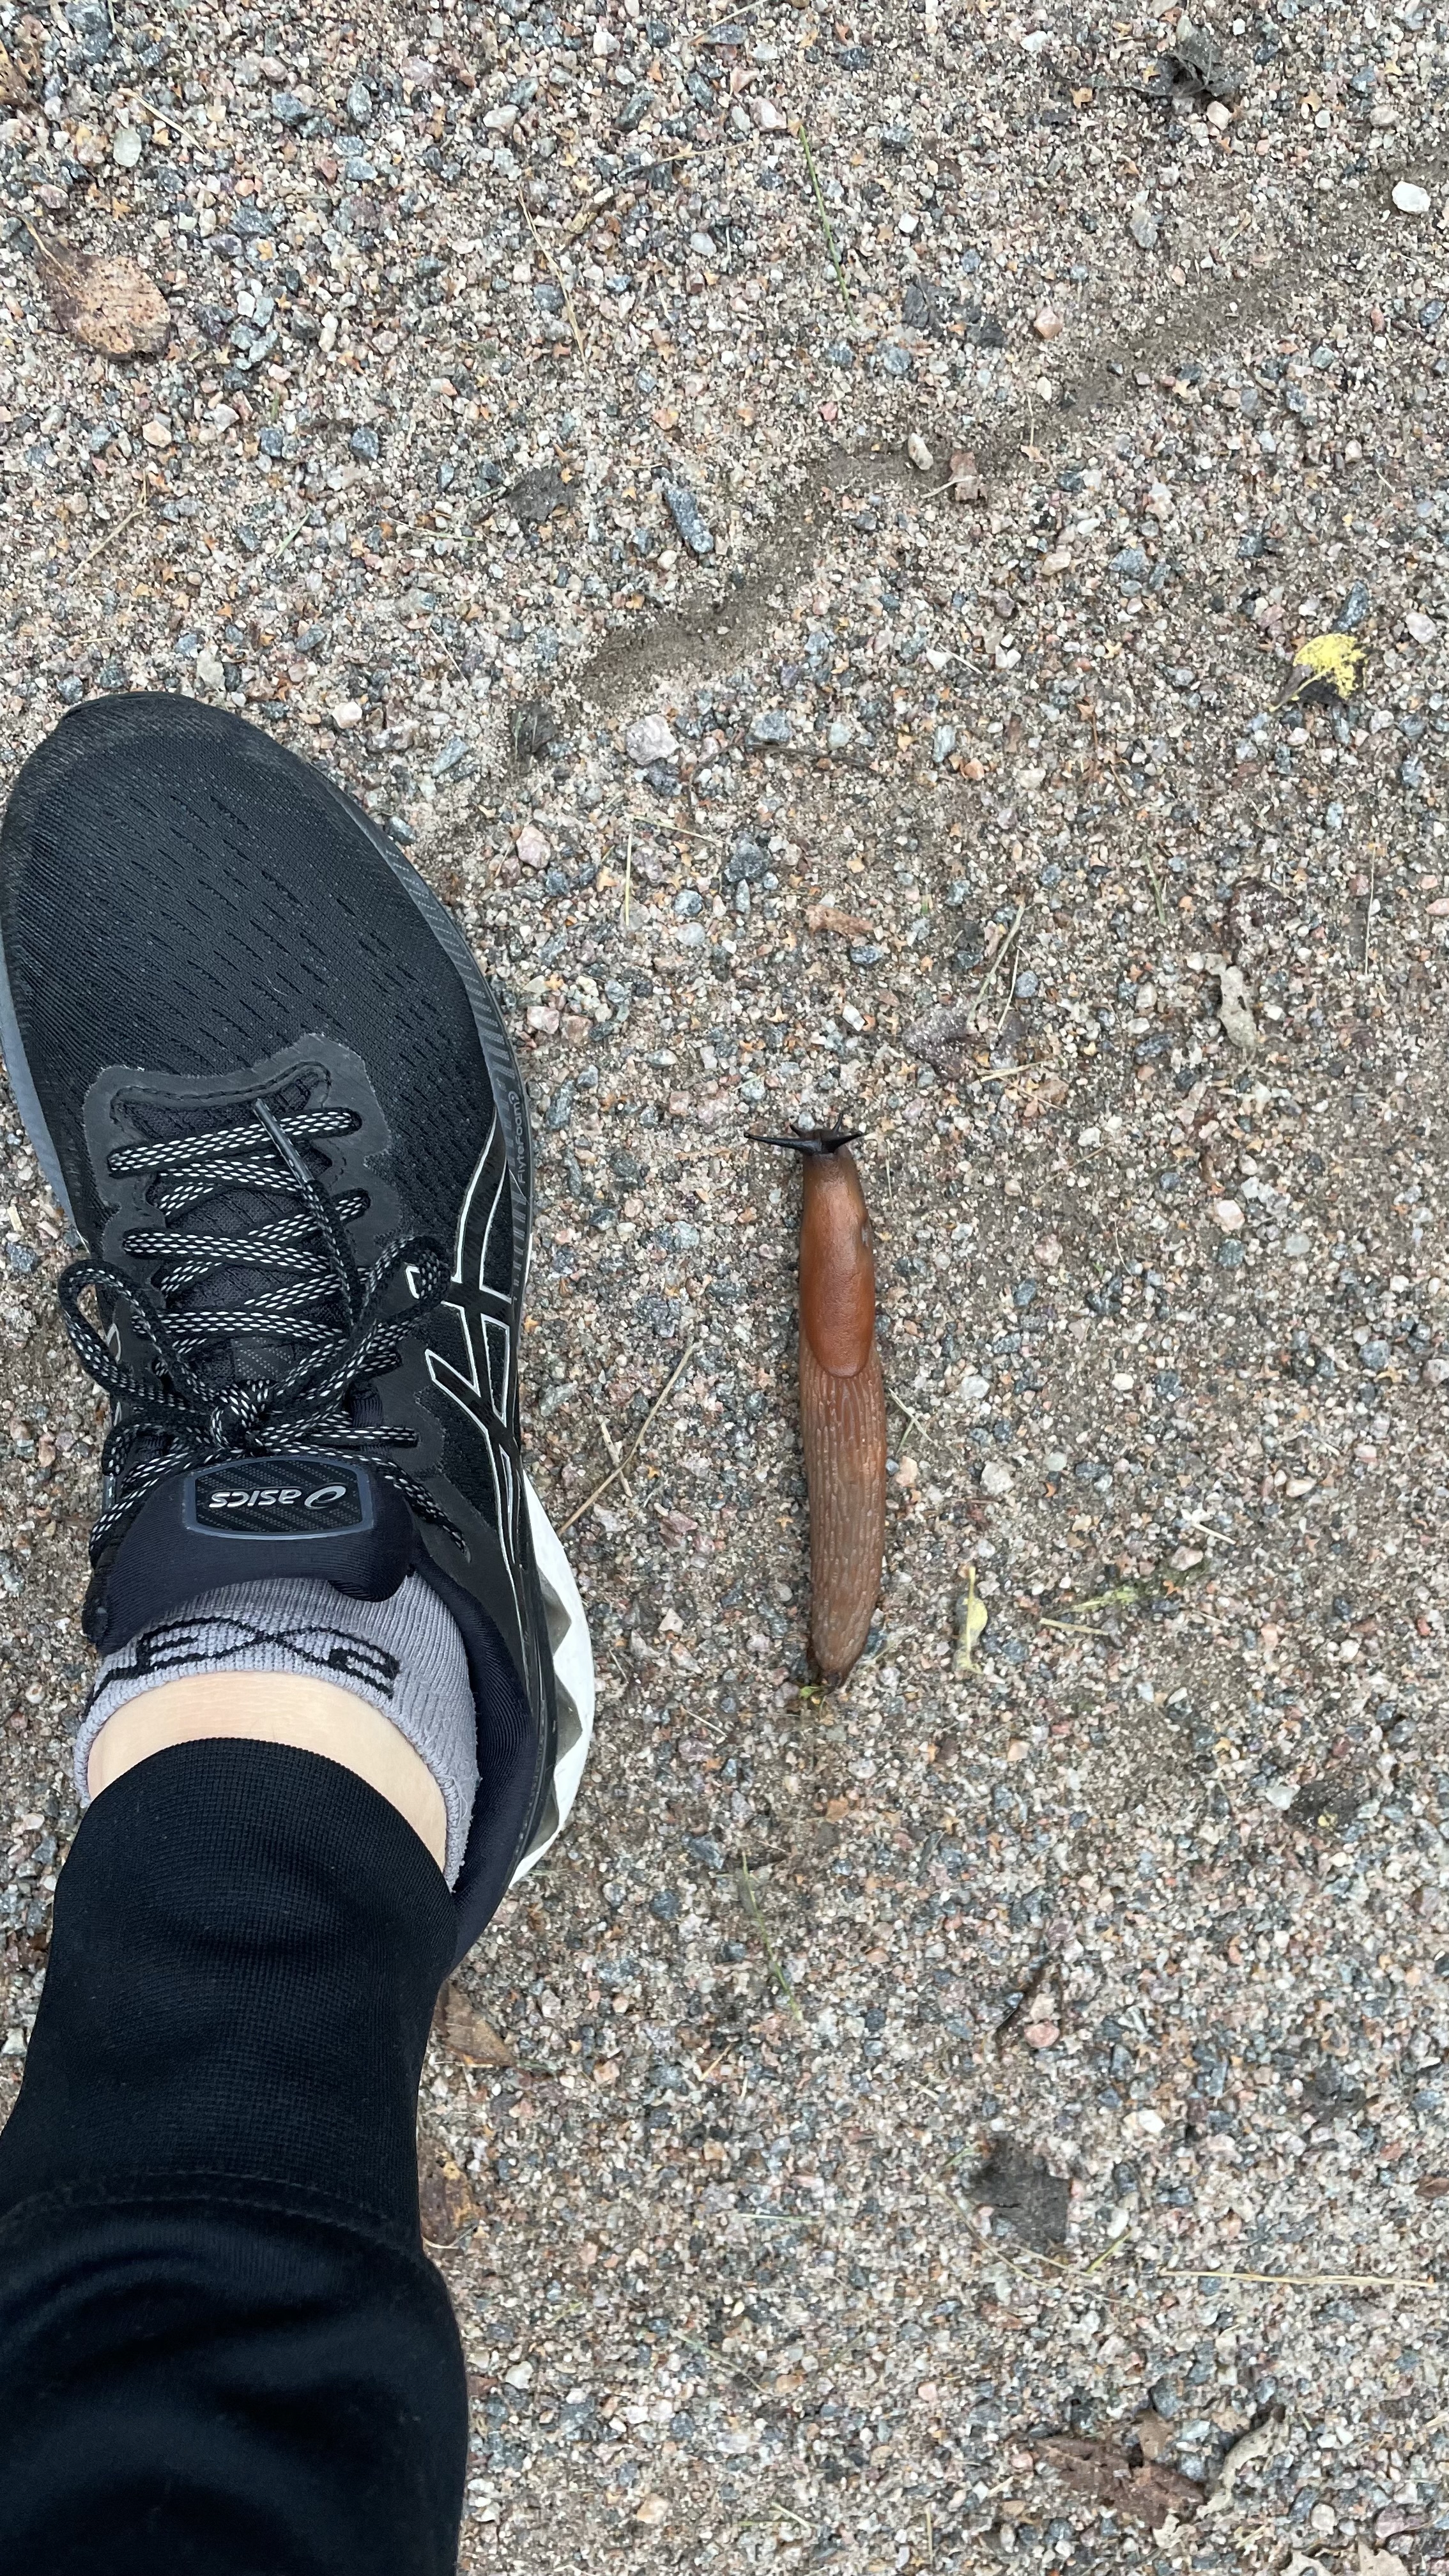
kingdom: Animalia
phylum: Mollusca
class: Gastropoda
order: Stylommatophora
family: Arionidae
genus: Arion
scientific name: Arion vulgaris
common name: Lusitanian slug
